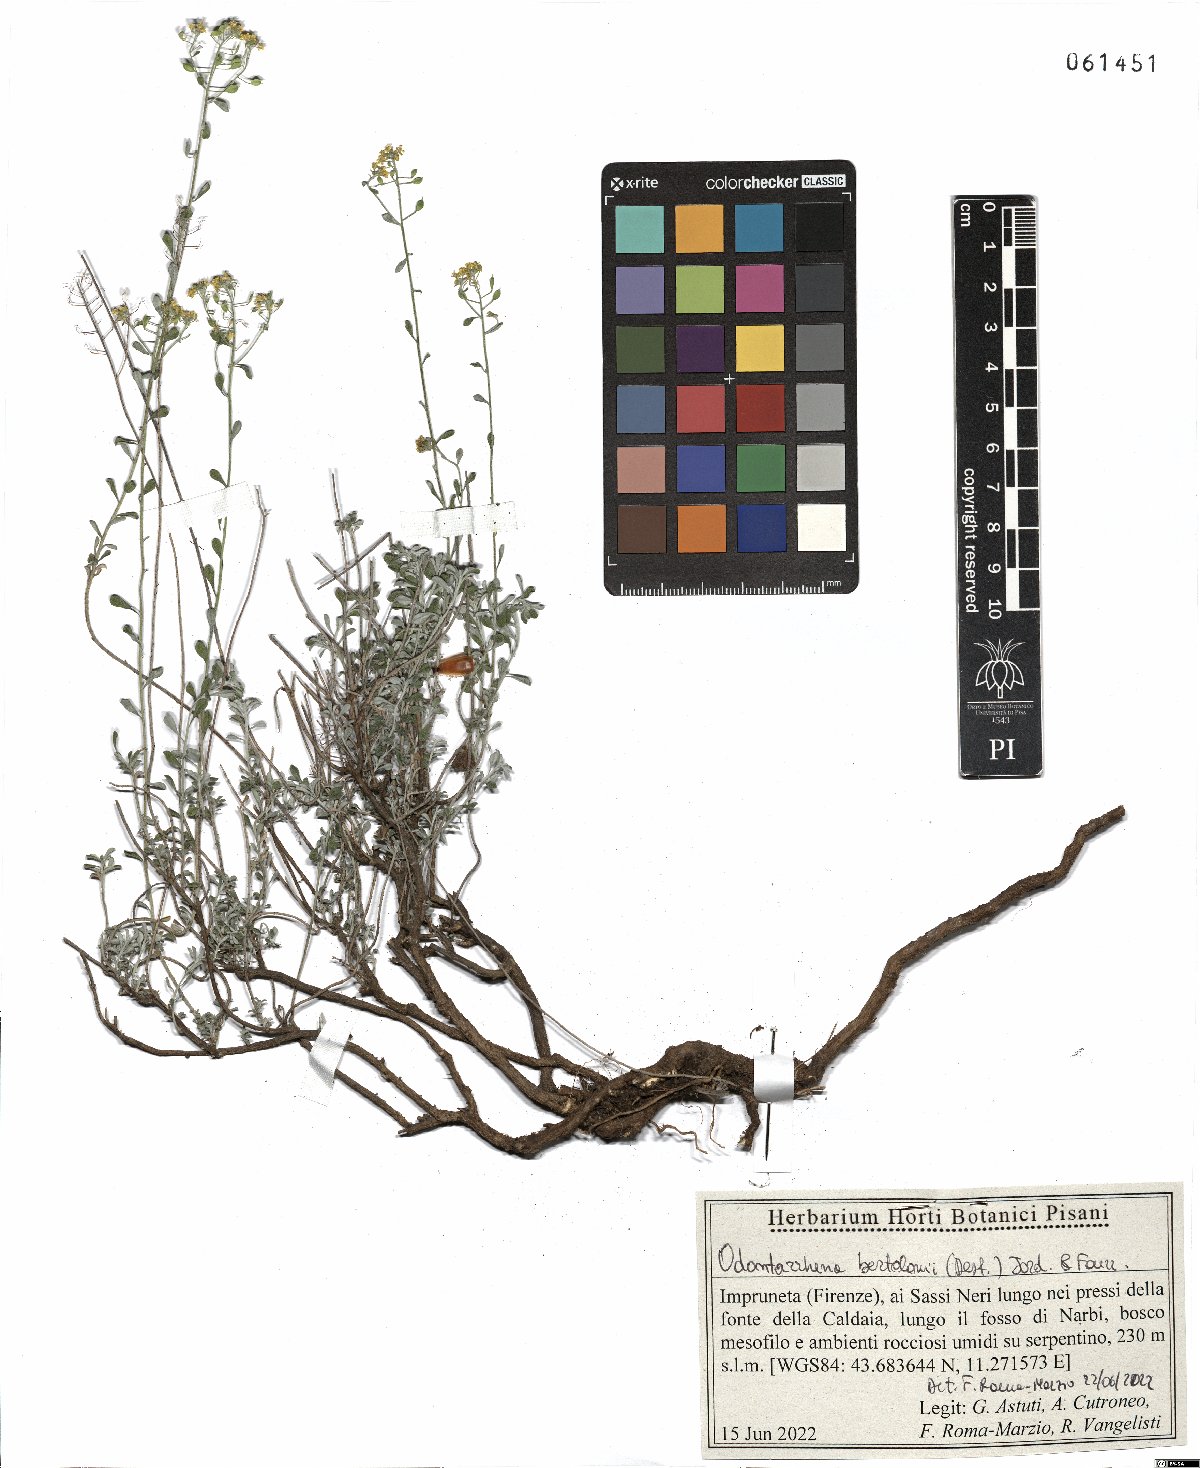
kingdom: Plantae
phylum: Tracheophyta
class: Magnoliopsida
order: Brassicales
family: Brassicaceae
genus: Odontarrhena
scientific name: Odontarrhena bertolonii
